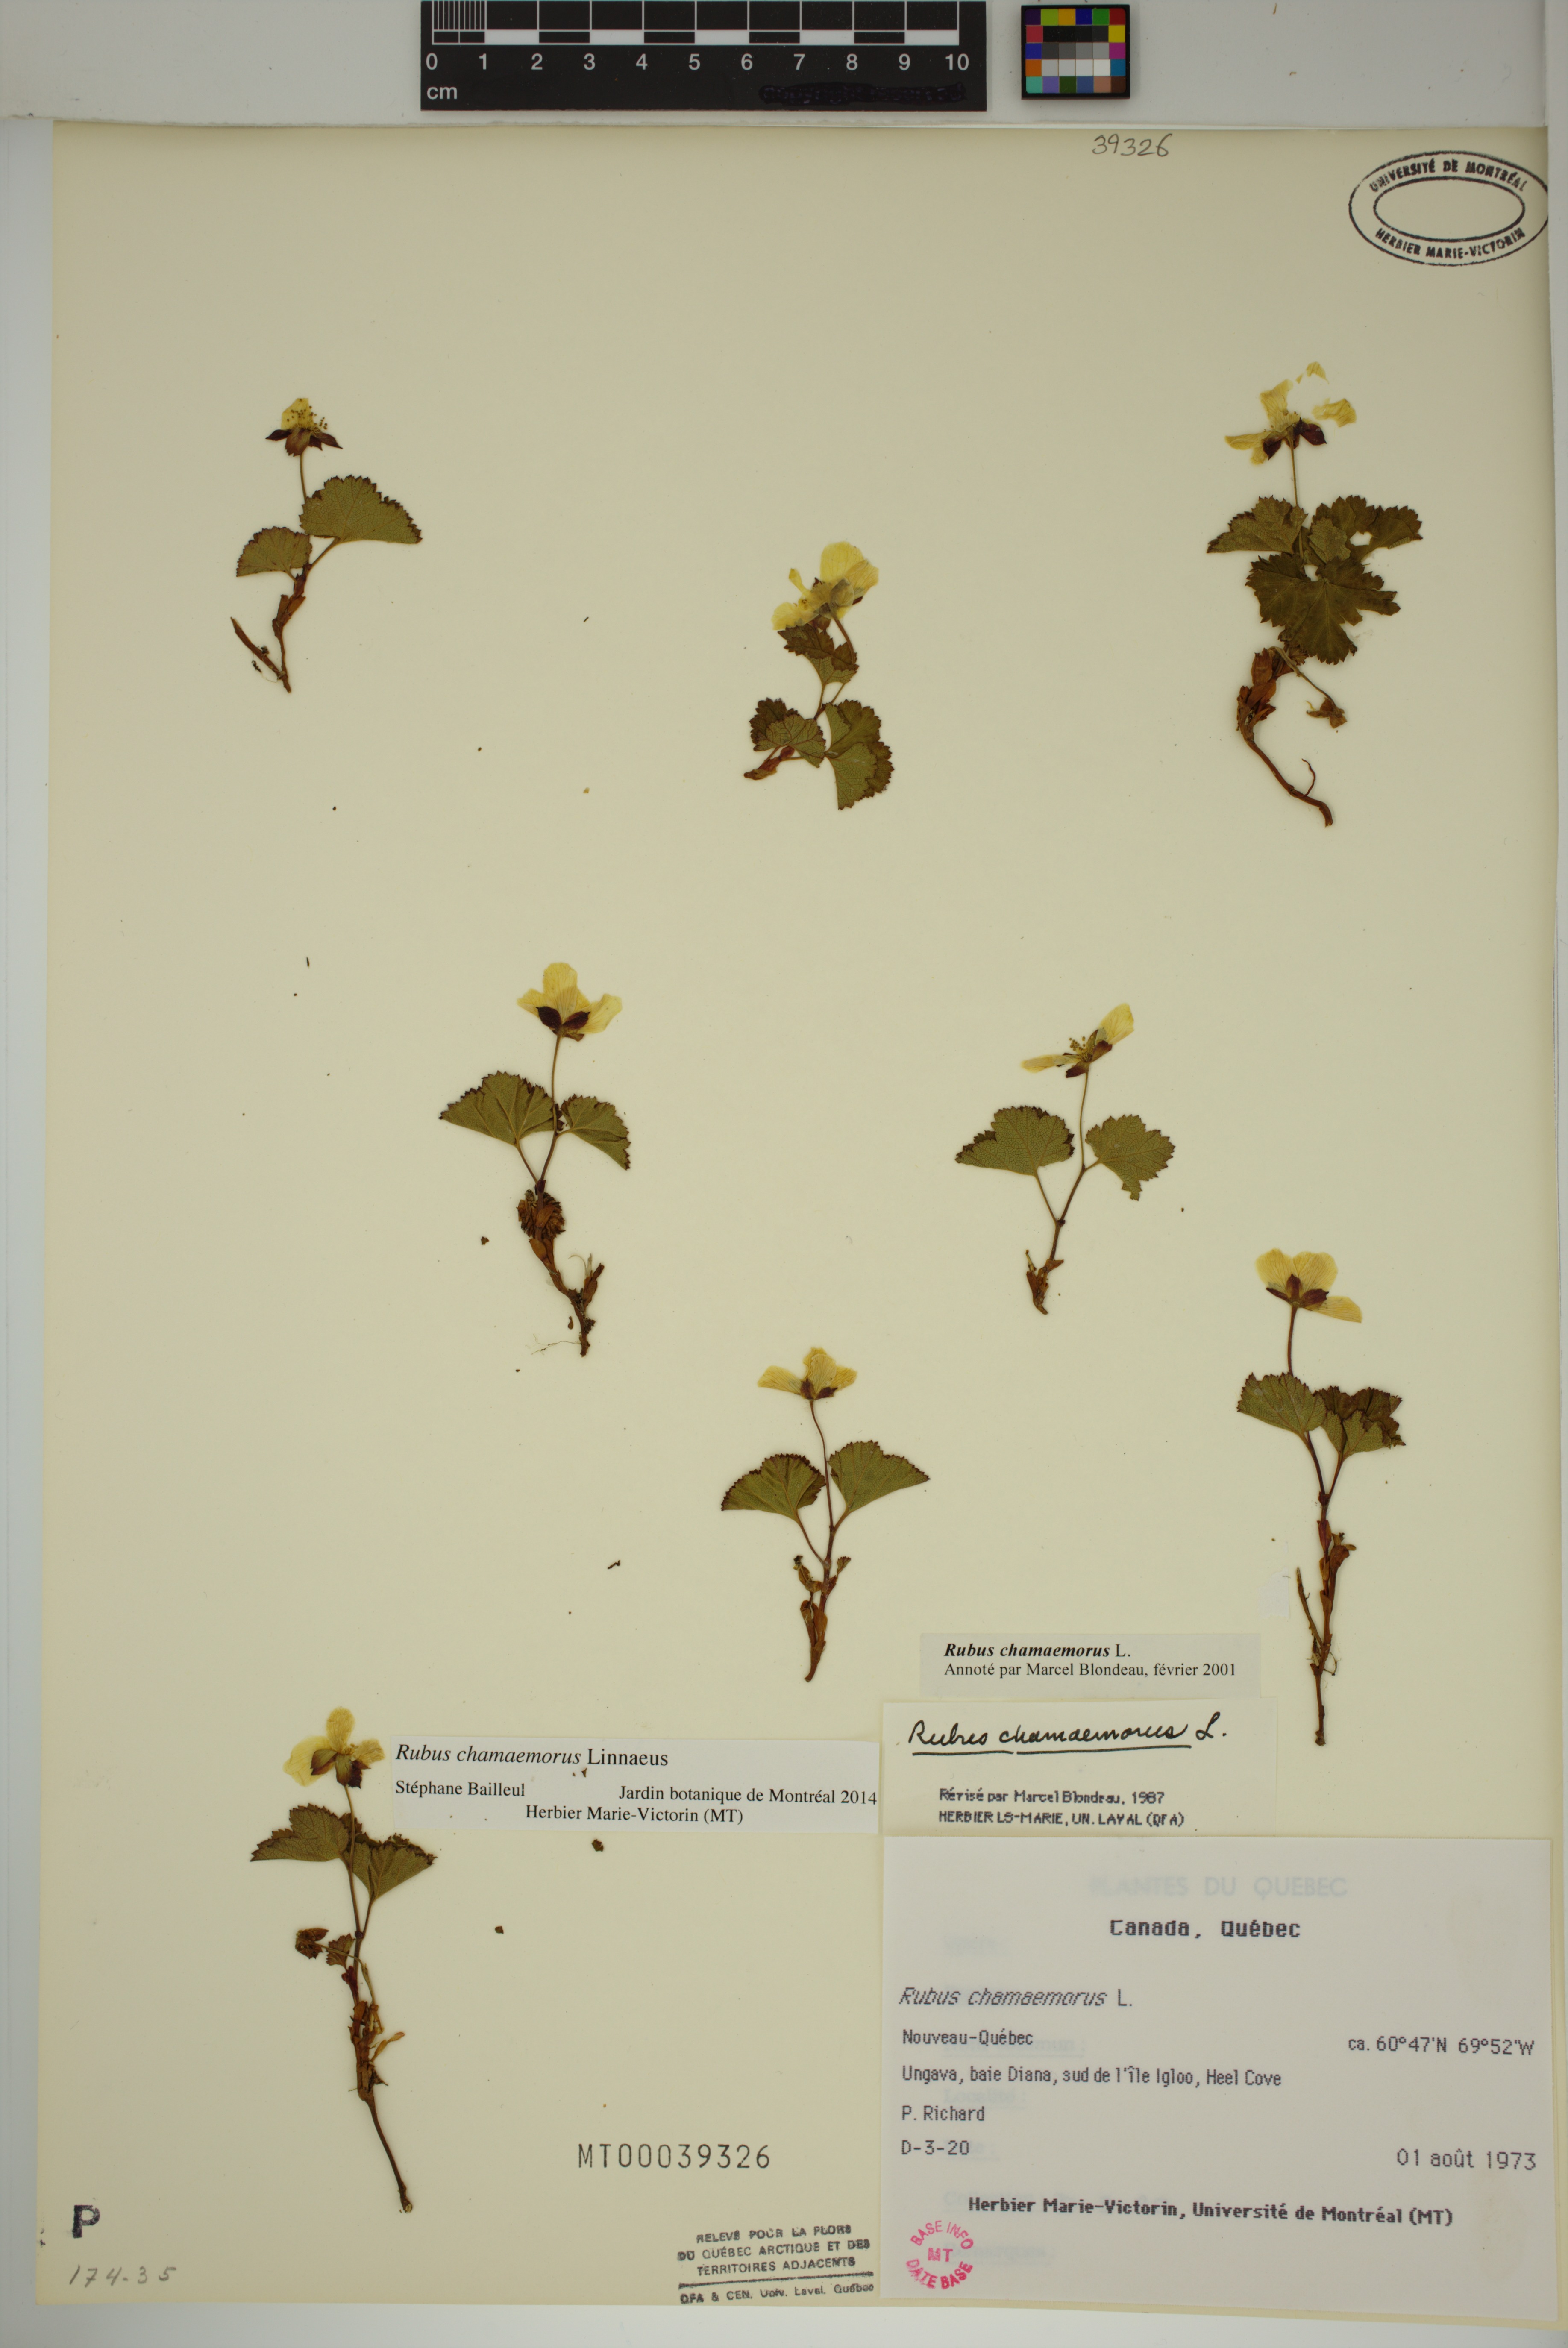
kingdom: Plantae
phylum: Tracheophyta
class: Magnoliopsida
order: Rosales
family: Rosaceae
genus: Rubus
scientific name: Rubus chamaemorus
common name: Cloudberry
